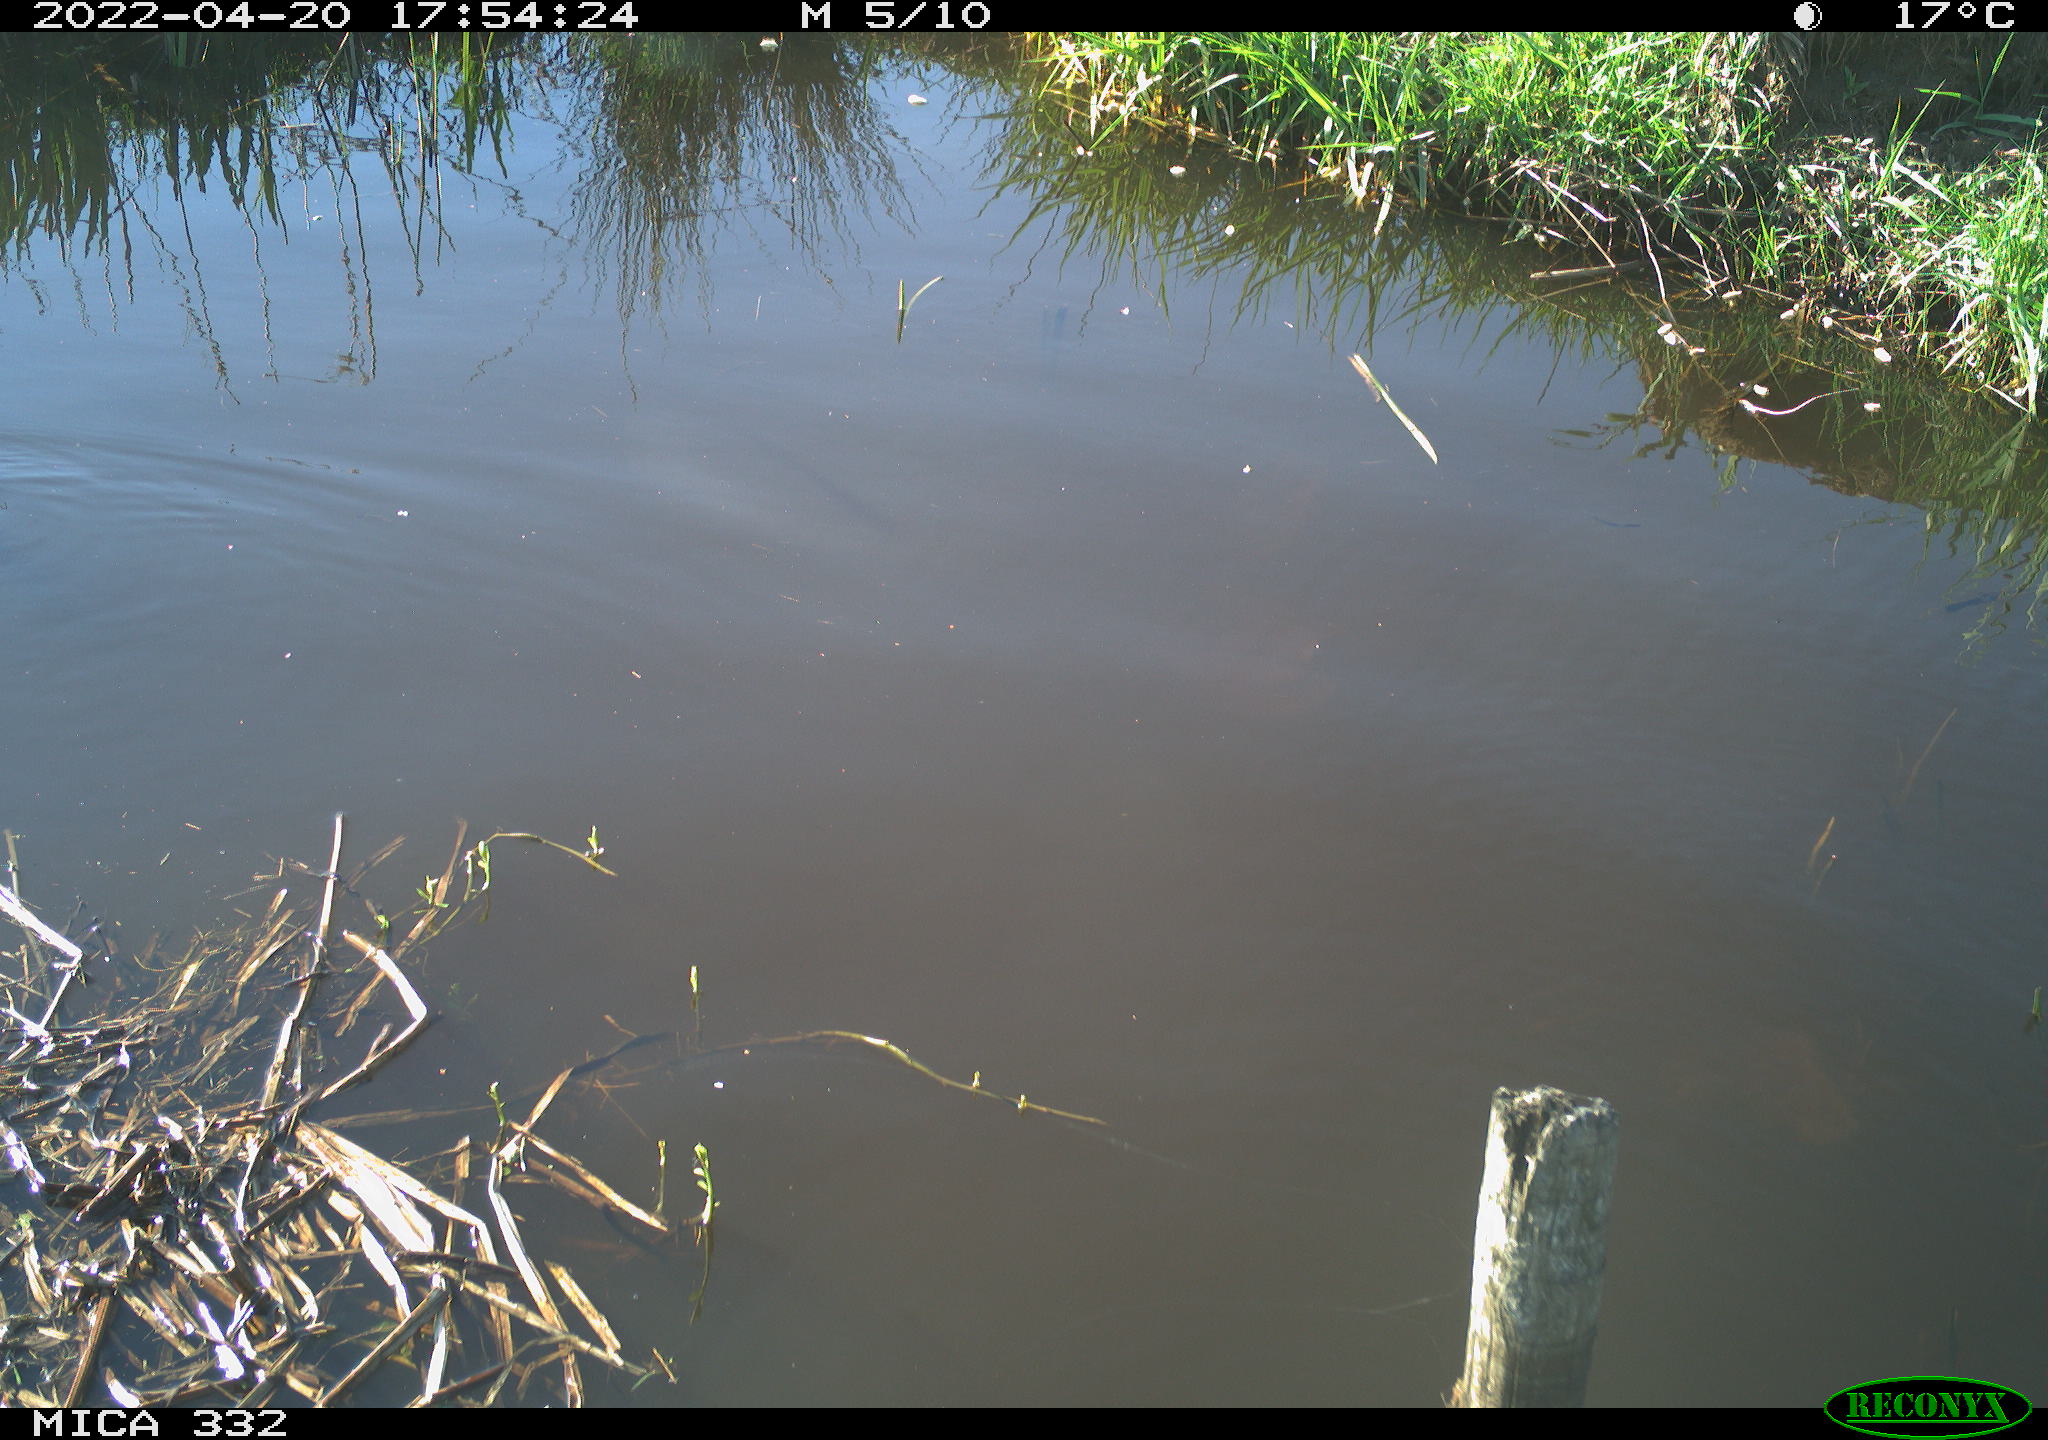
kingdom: Animalia
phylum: Chordata
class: Aves
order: Gruiformes
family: Rallidae
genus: Gallinula
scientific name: Gallinula chloropus
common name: Common moorhen
